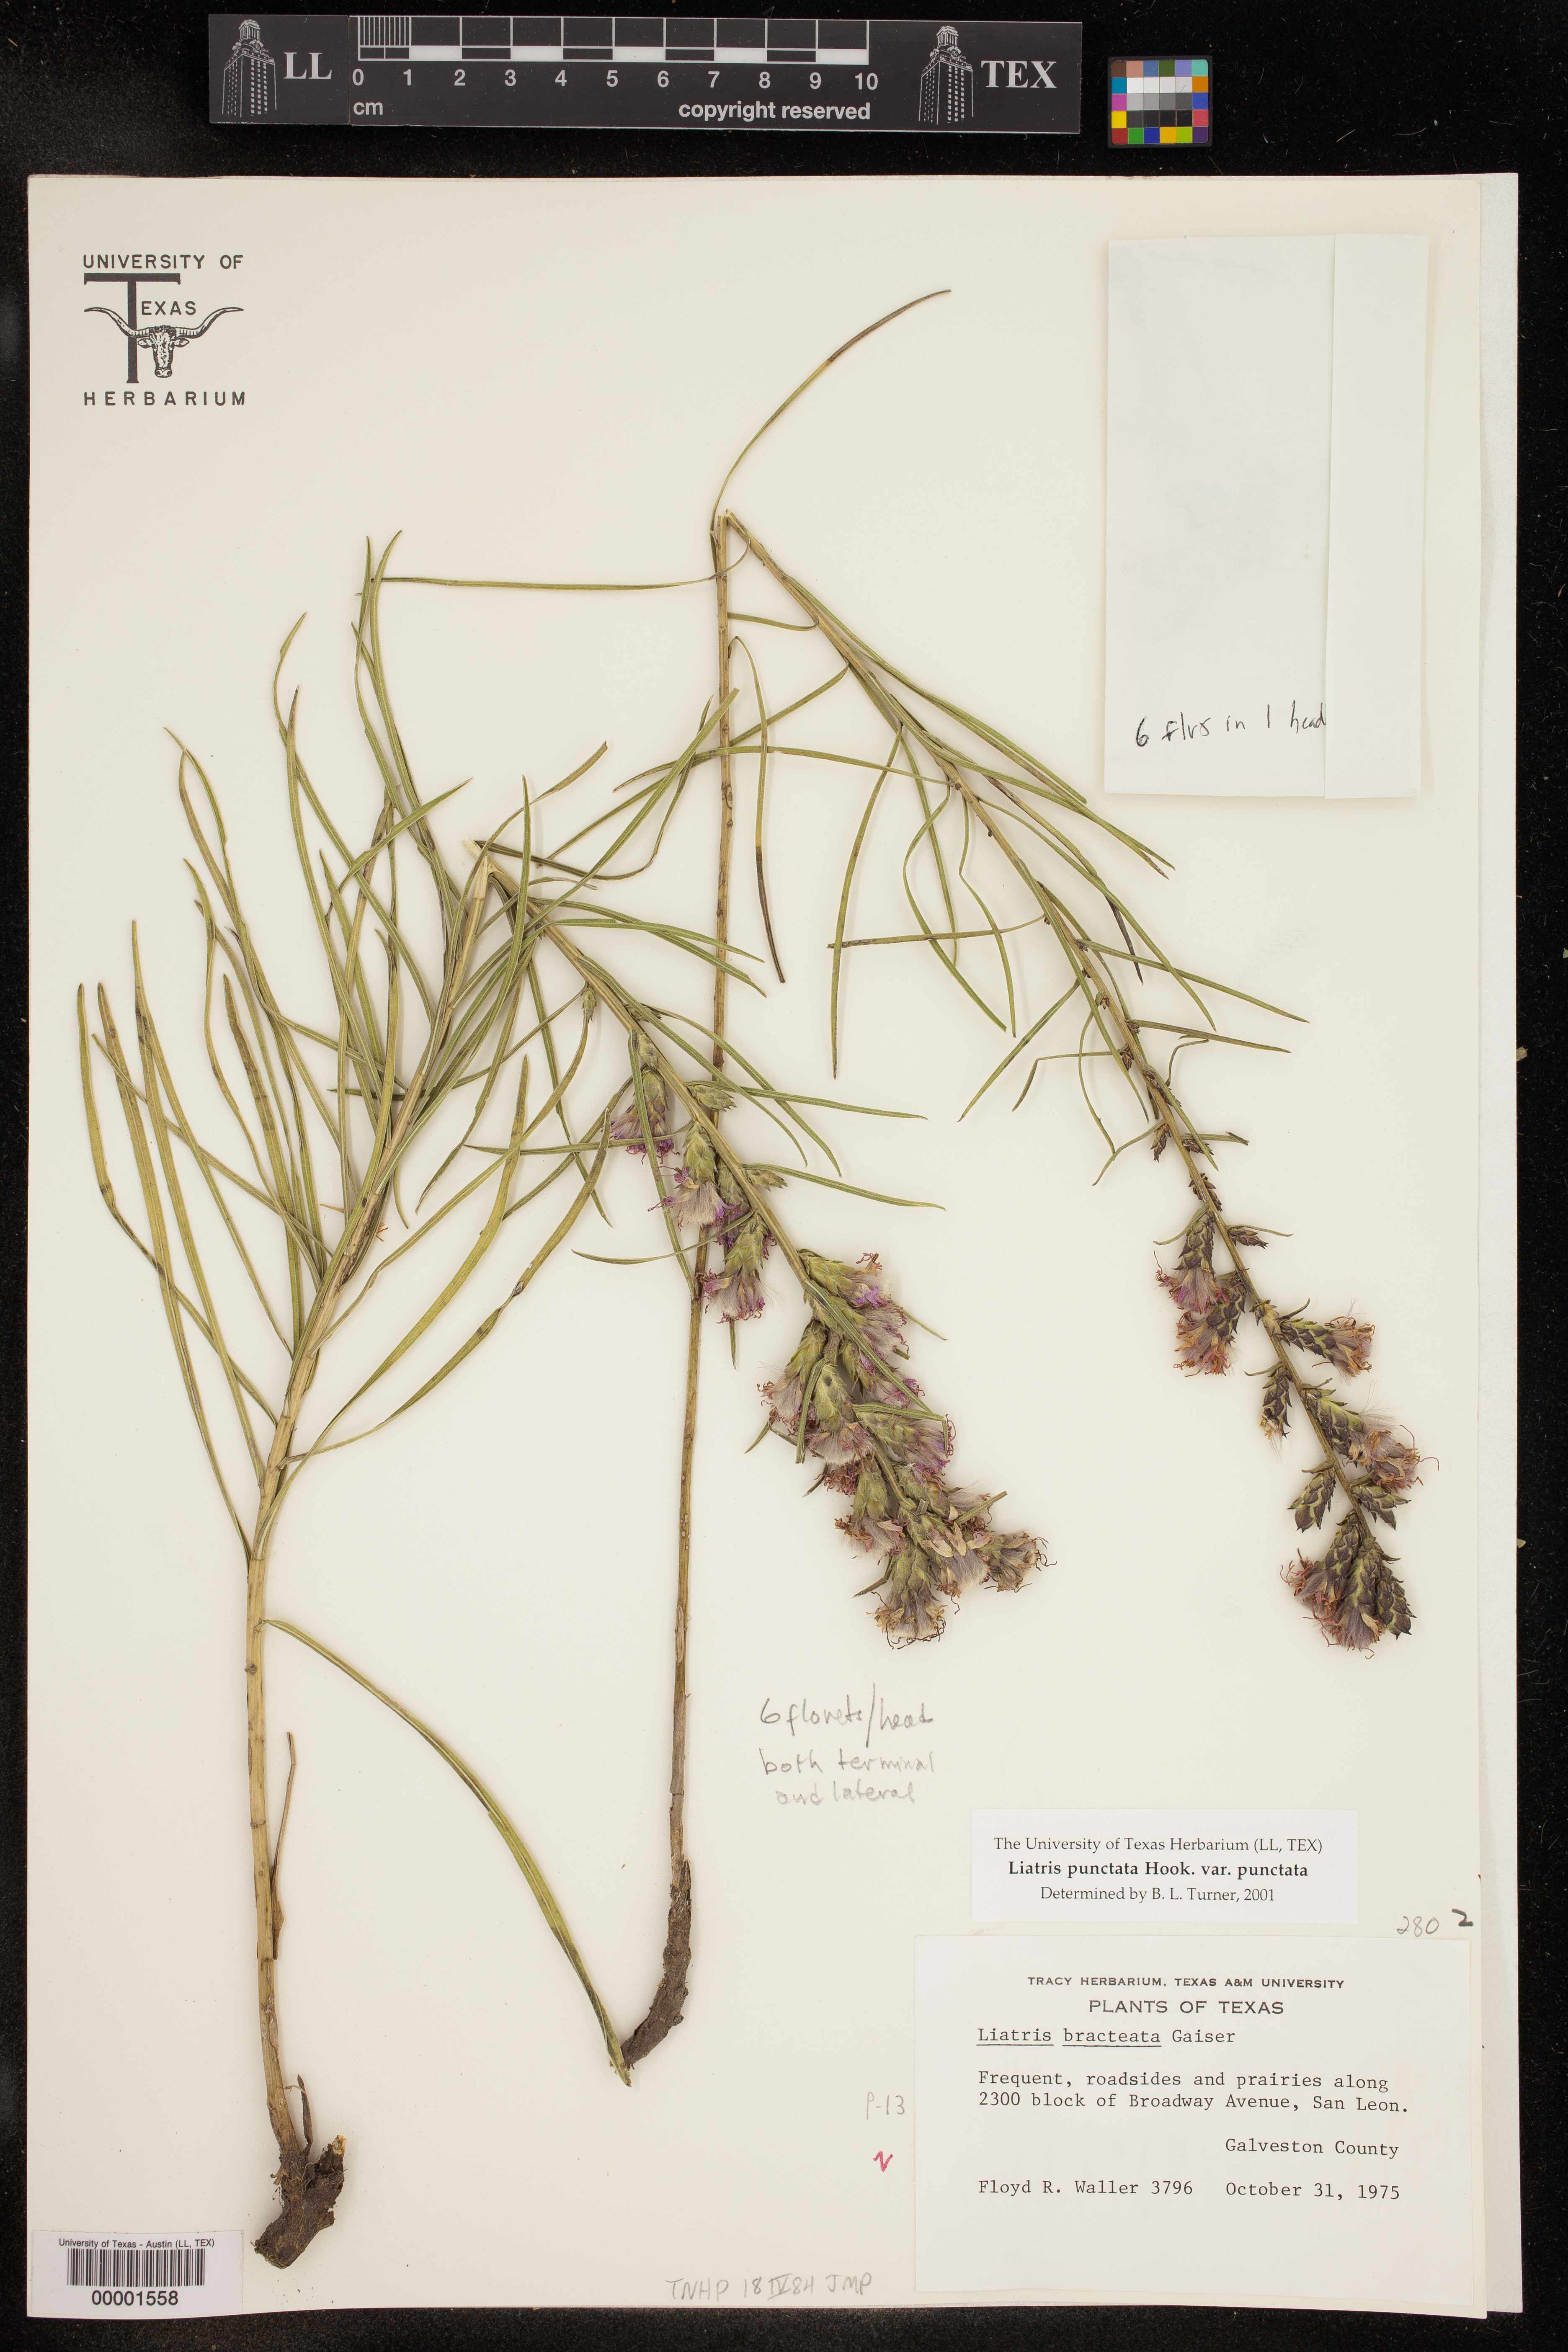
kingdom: Plantae
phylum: Tracheophyta
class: Magnoliopsida
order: Asterales
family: Asteraceae
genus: Liatris
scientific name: Liatris punctata
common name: Dotted gayfeather
